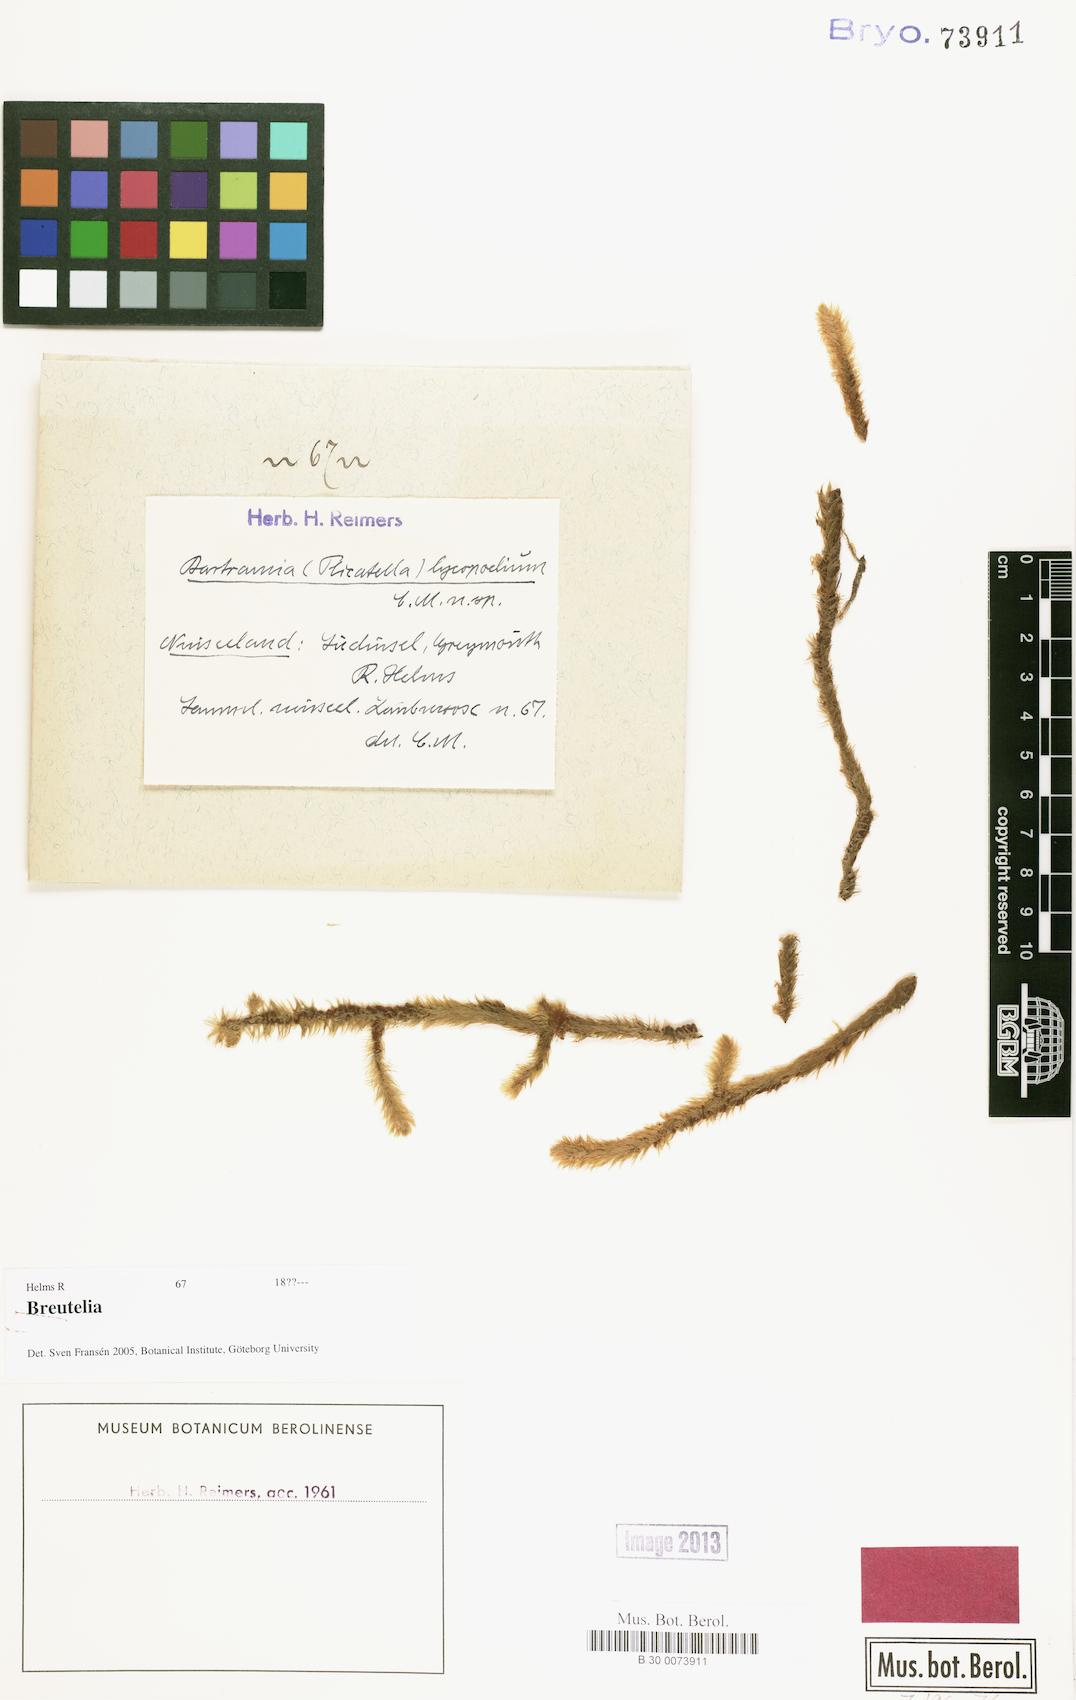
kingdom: Plantae
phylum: Bryophyta
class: Bryopsida
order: Bartramiales
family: Bartramiaceae
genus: Breutelia
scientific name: Breutelia
